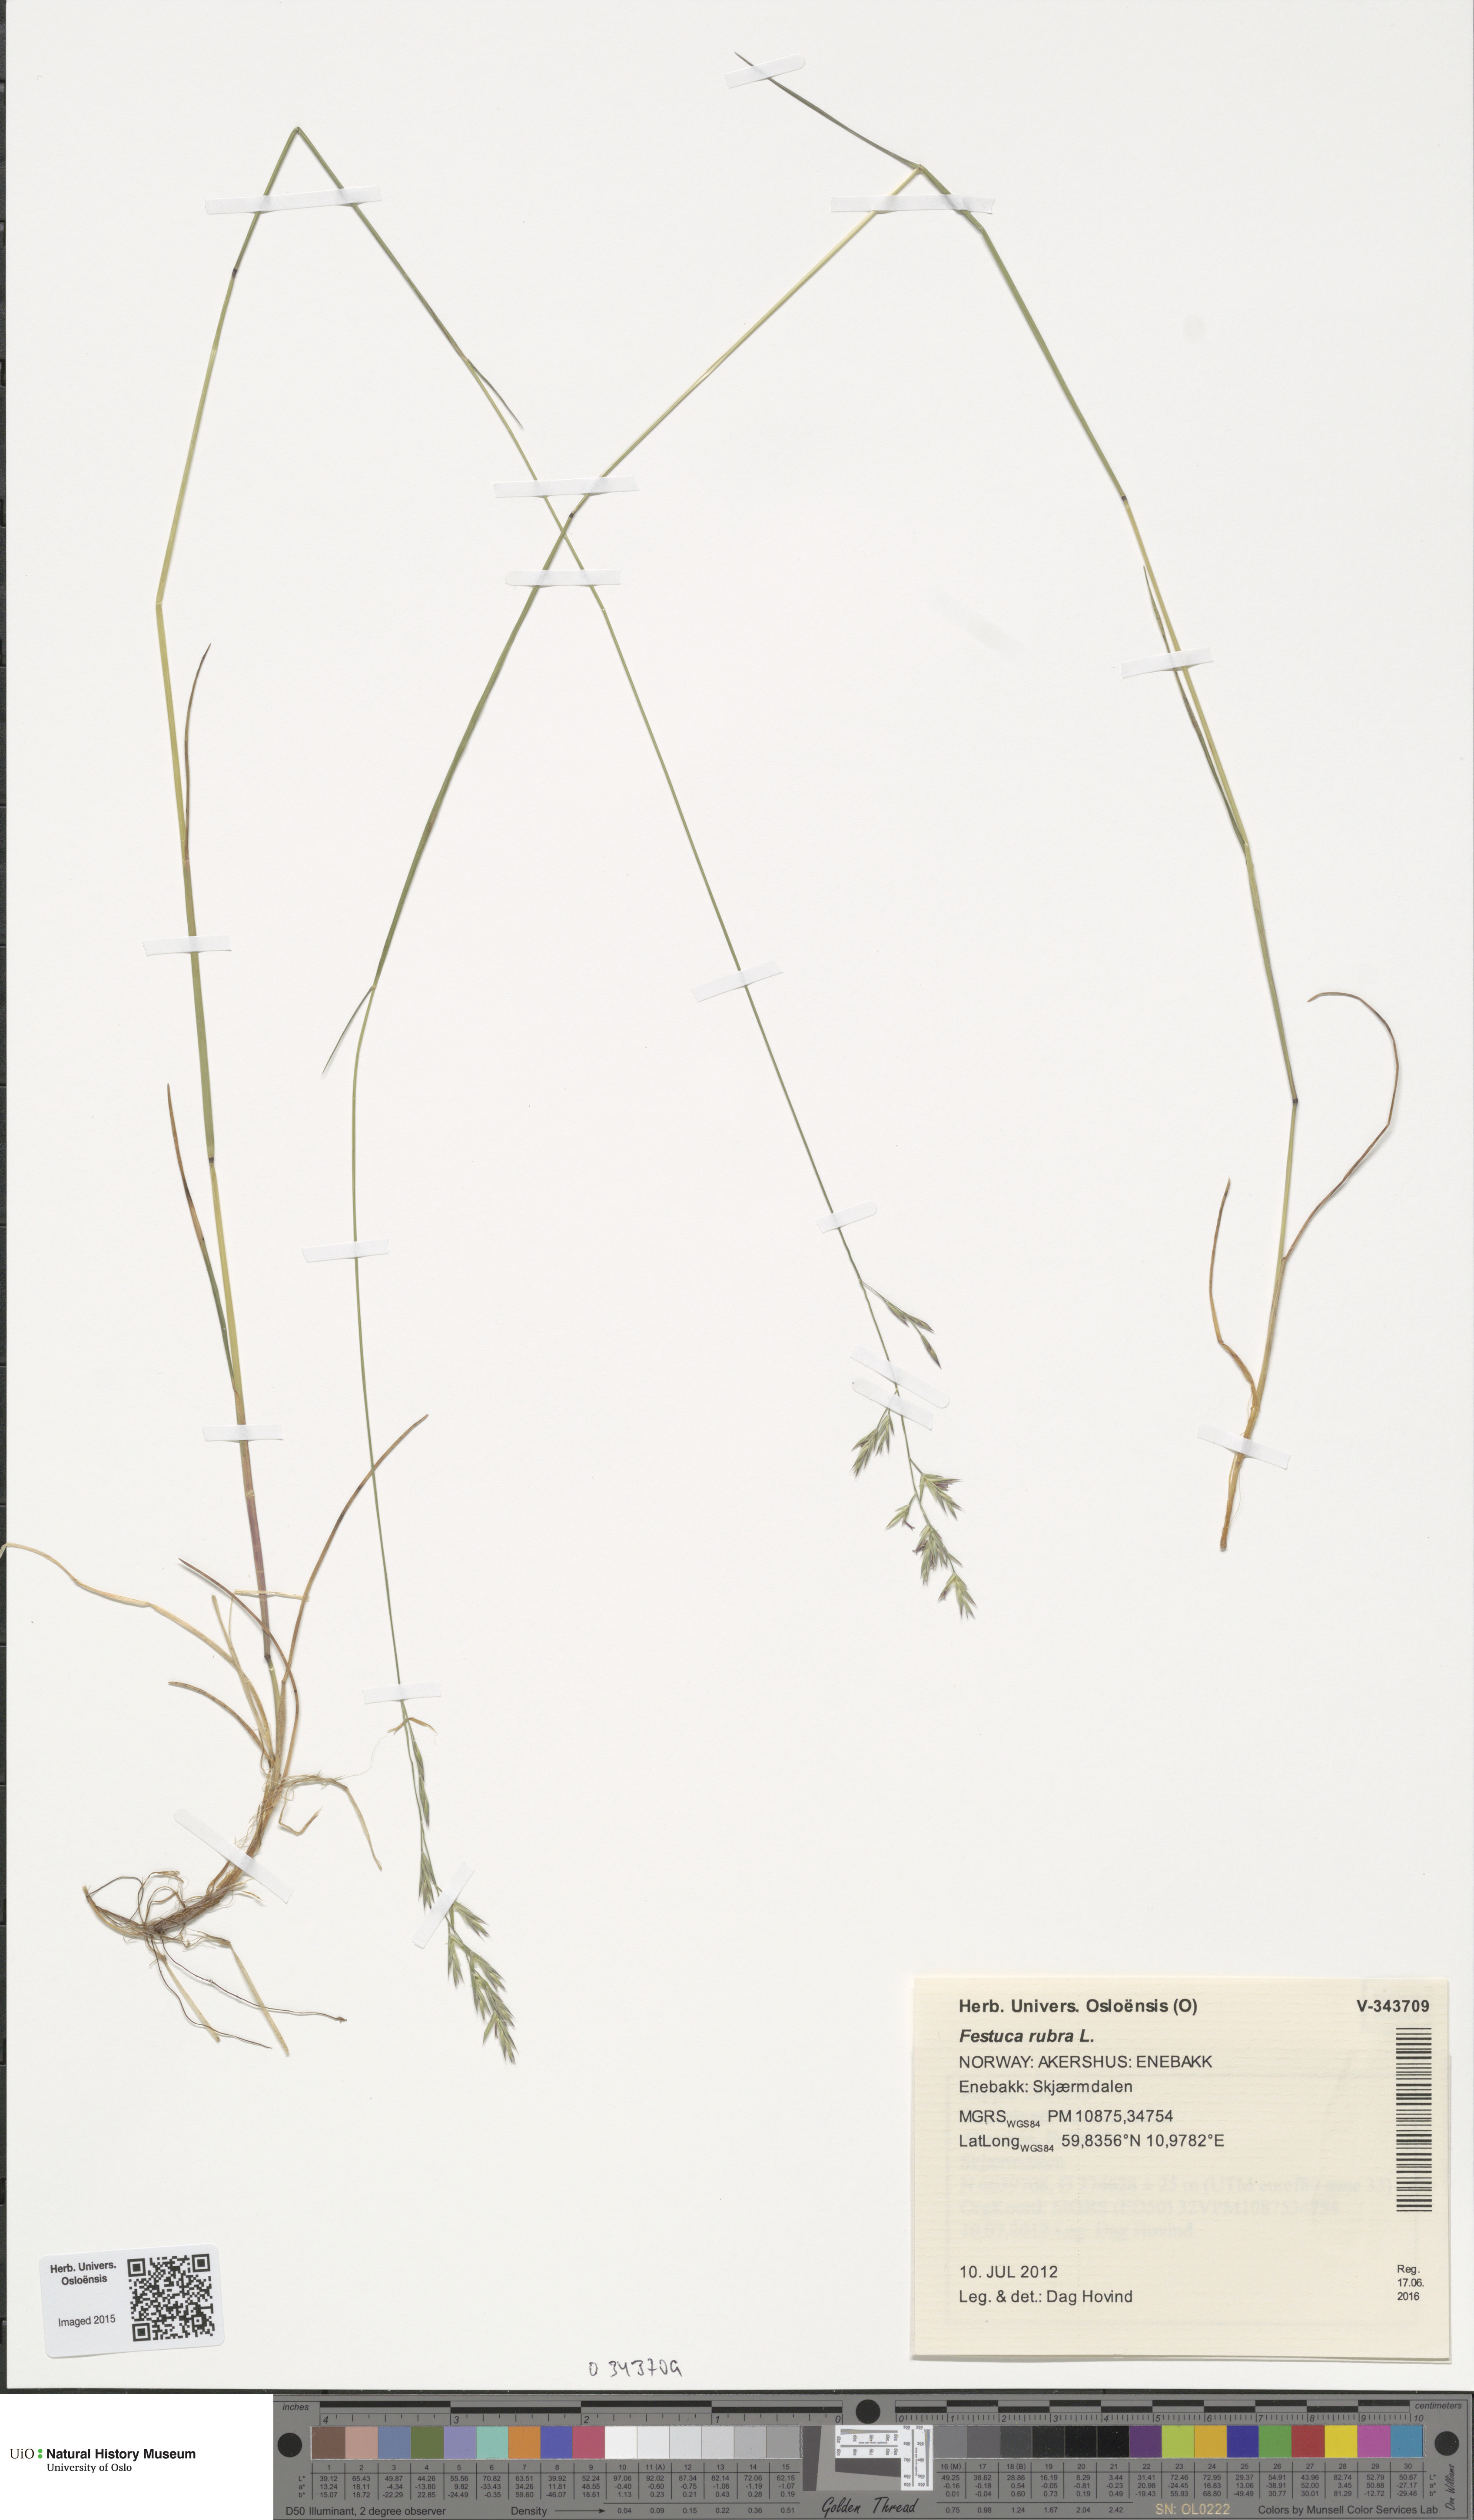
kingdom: Plantae
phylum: Tracheophyta
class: Liliopsida
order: Poales
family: Poaceae
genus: Festuca
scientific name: Festuca rubra
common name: Red fescue
